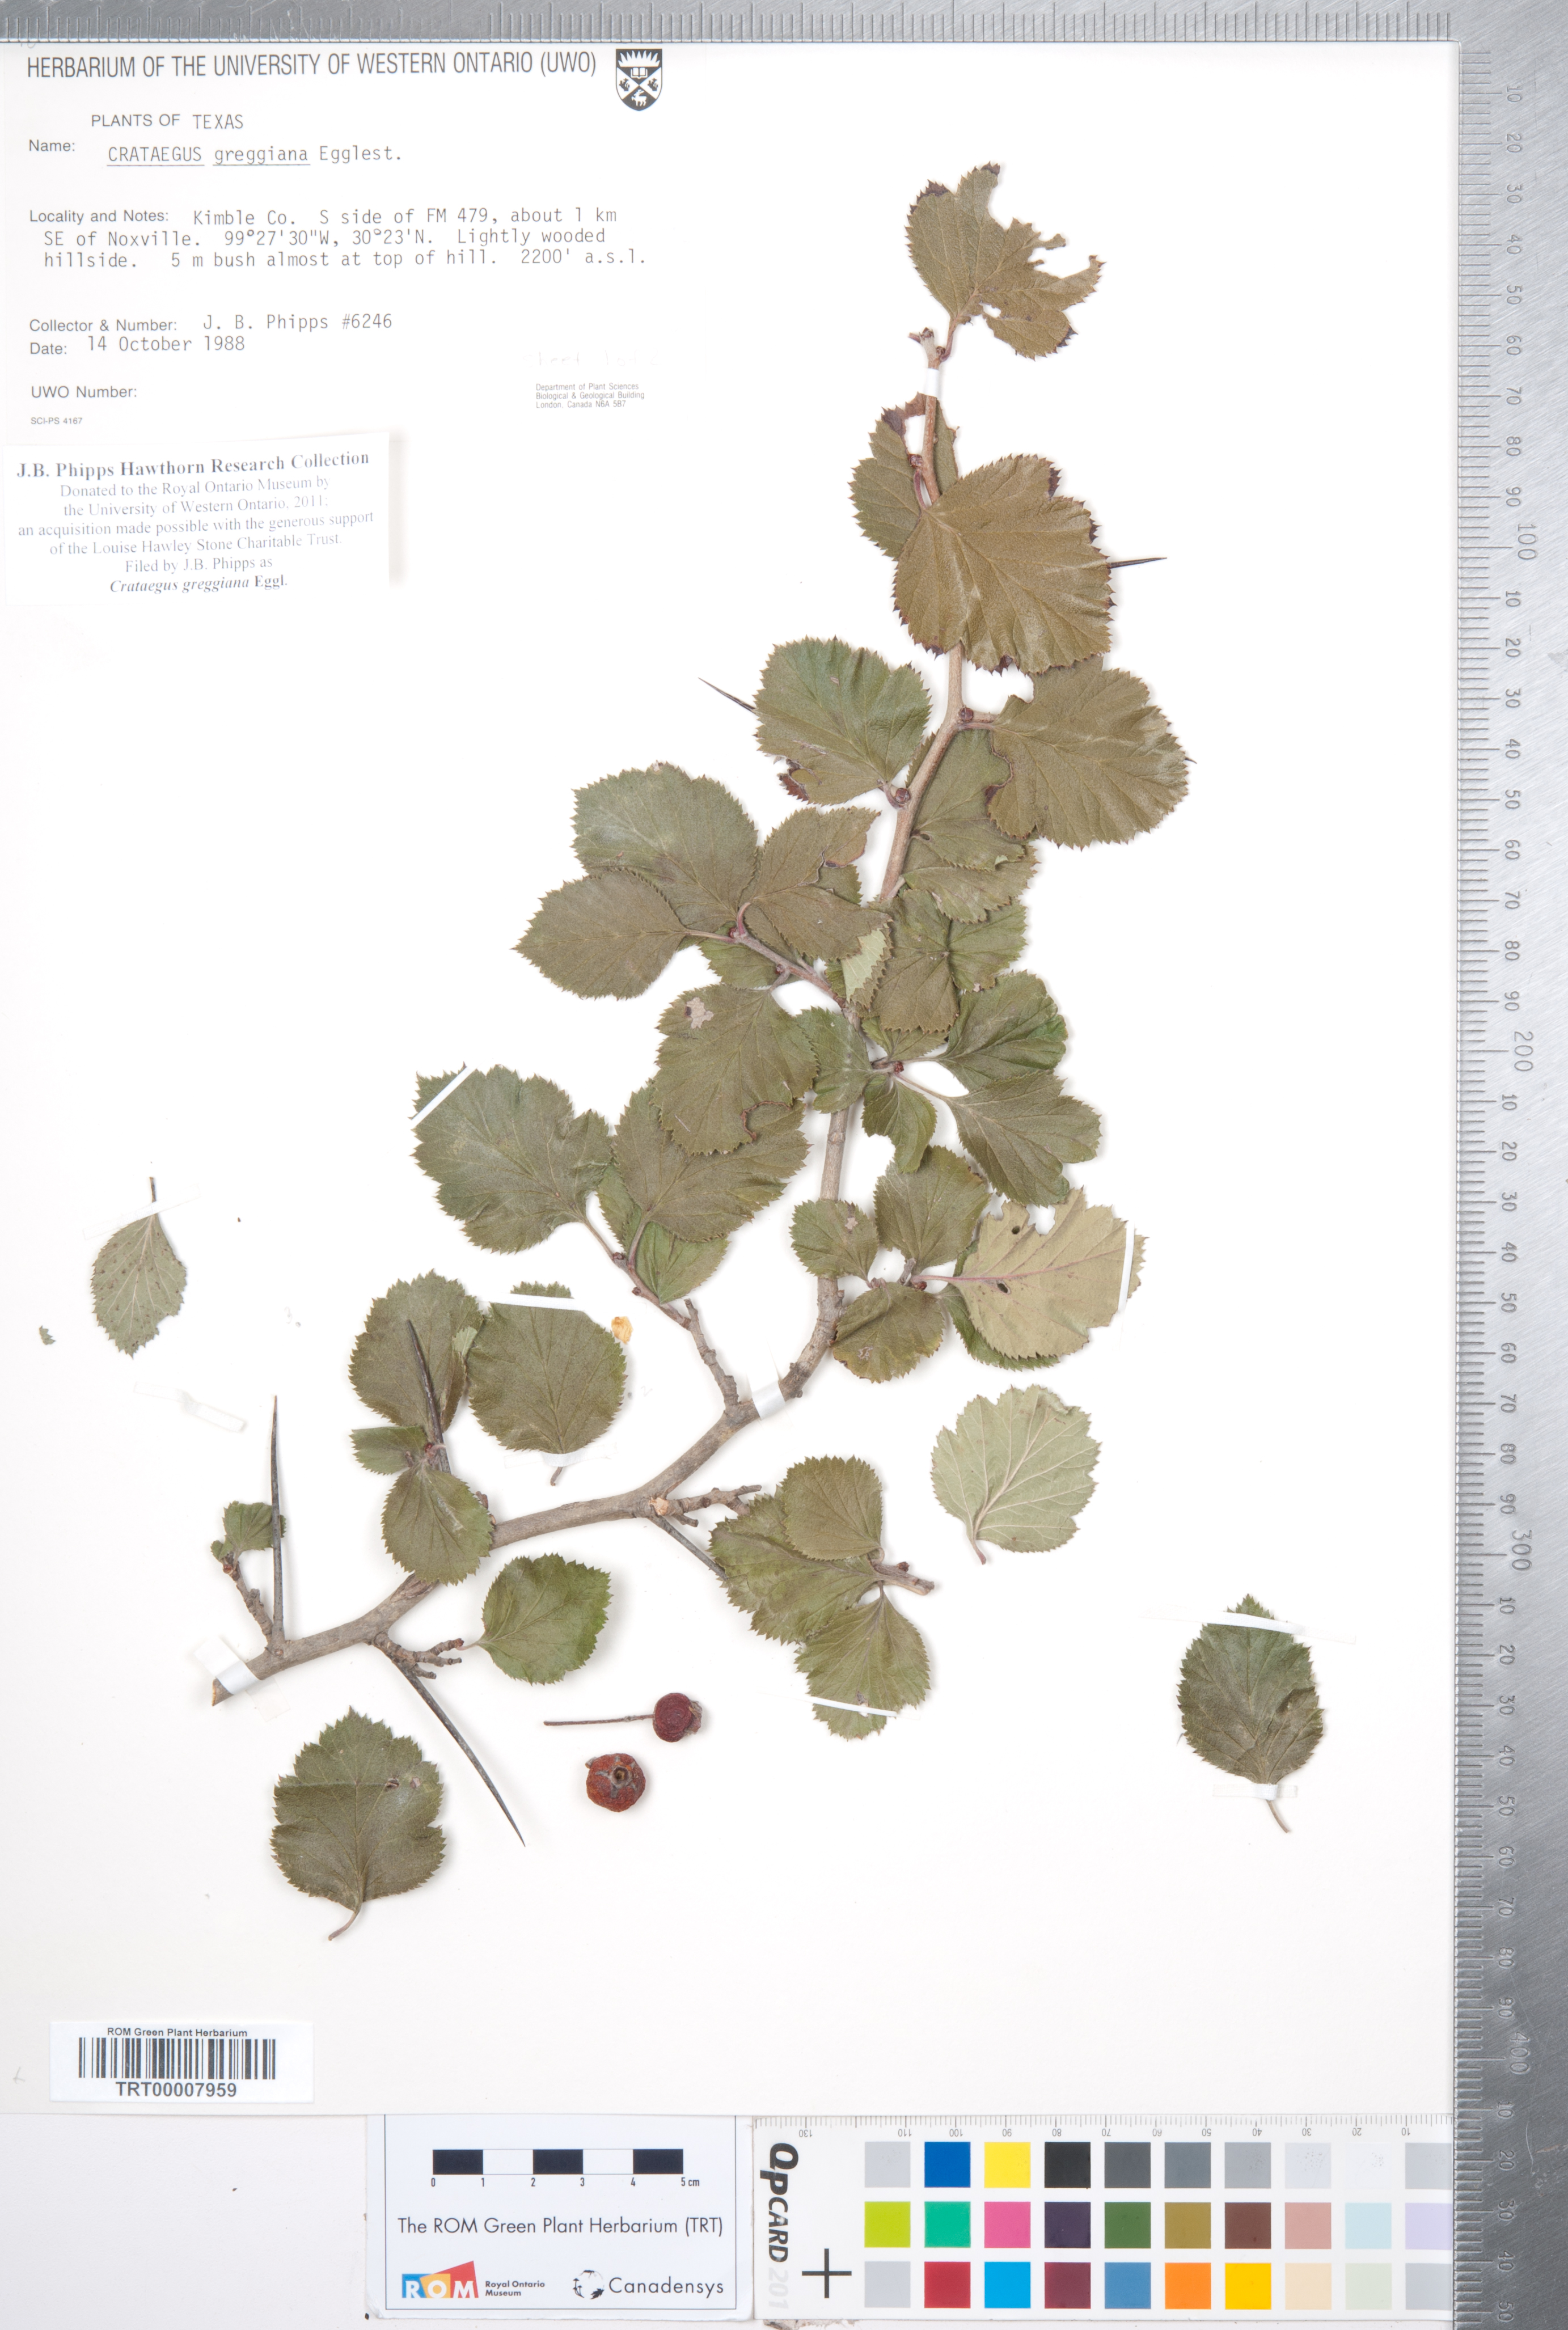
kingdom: Plantae
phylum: Tracheophyta
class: Magnoliopsida
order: Rosales
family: Rosaceae
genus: Crataegus
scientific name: Crataegus greggiana
